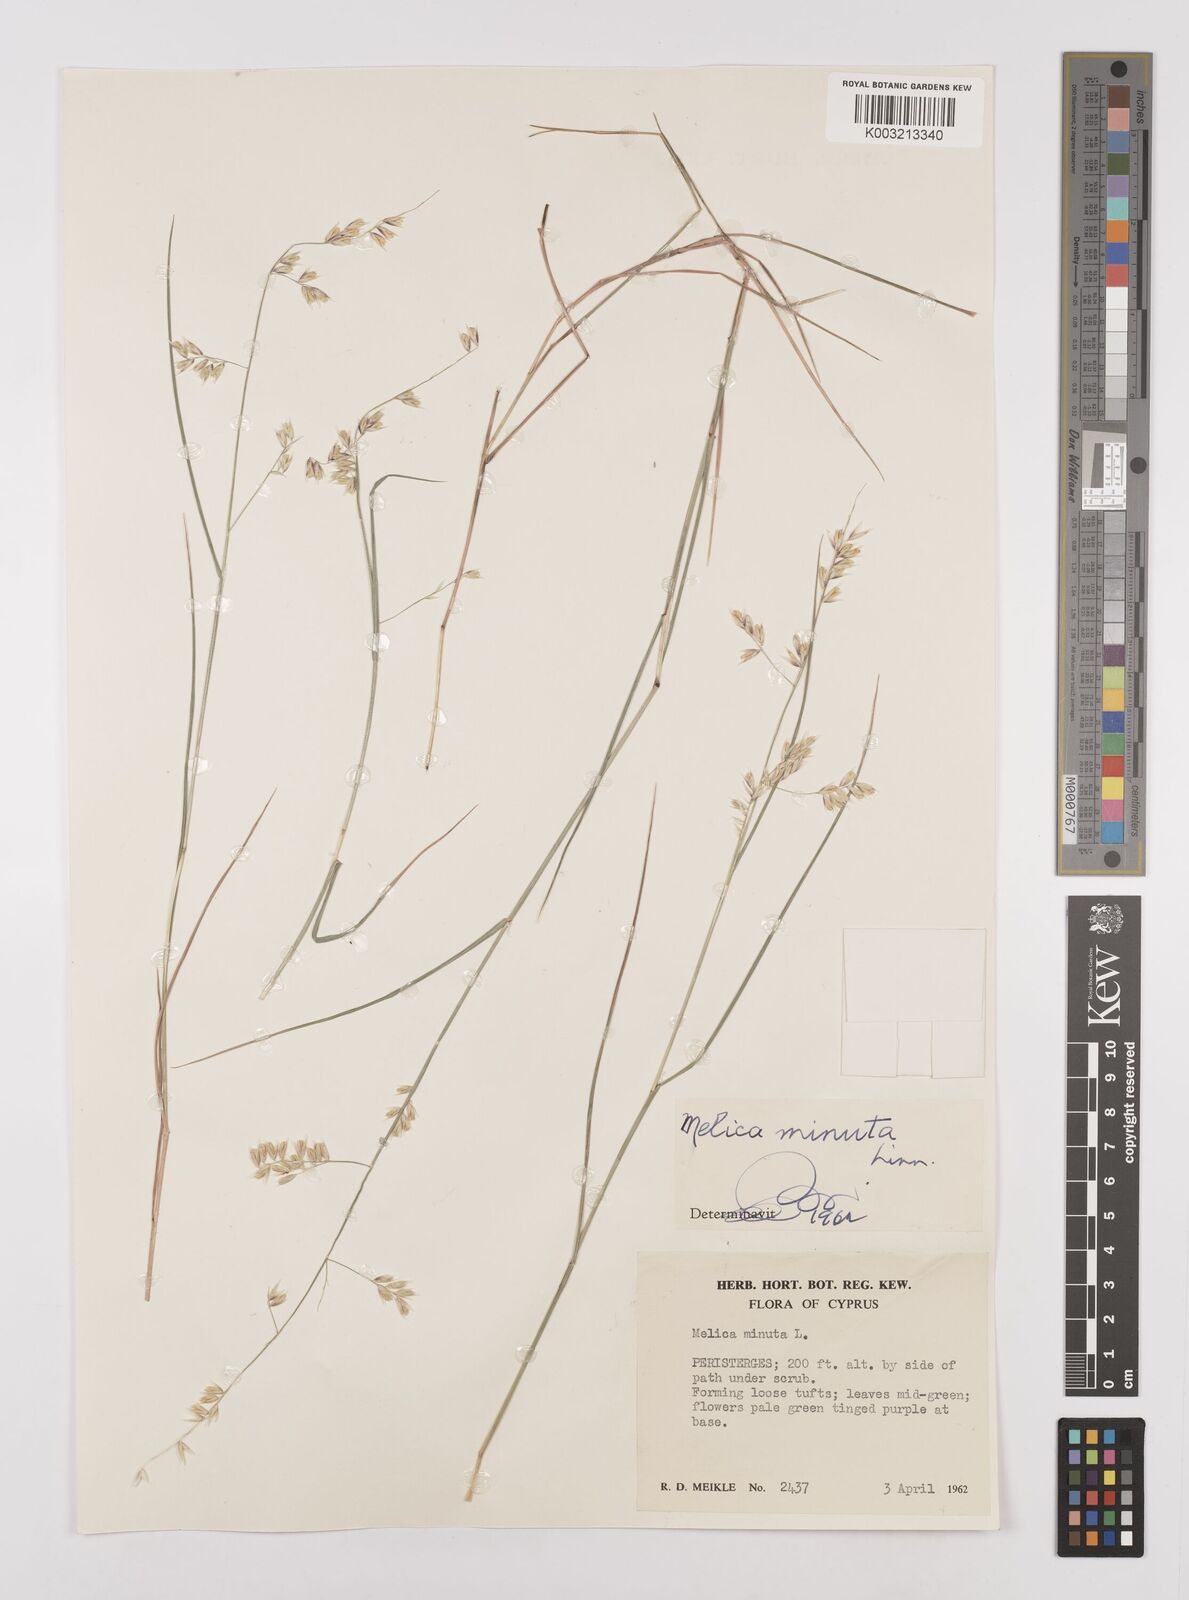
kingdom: Plantae
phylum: Tracheophyta
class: Liliopsida
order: Poales
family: Poaceae
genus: Melica
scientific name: Melica minuta
